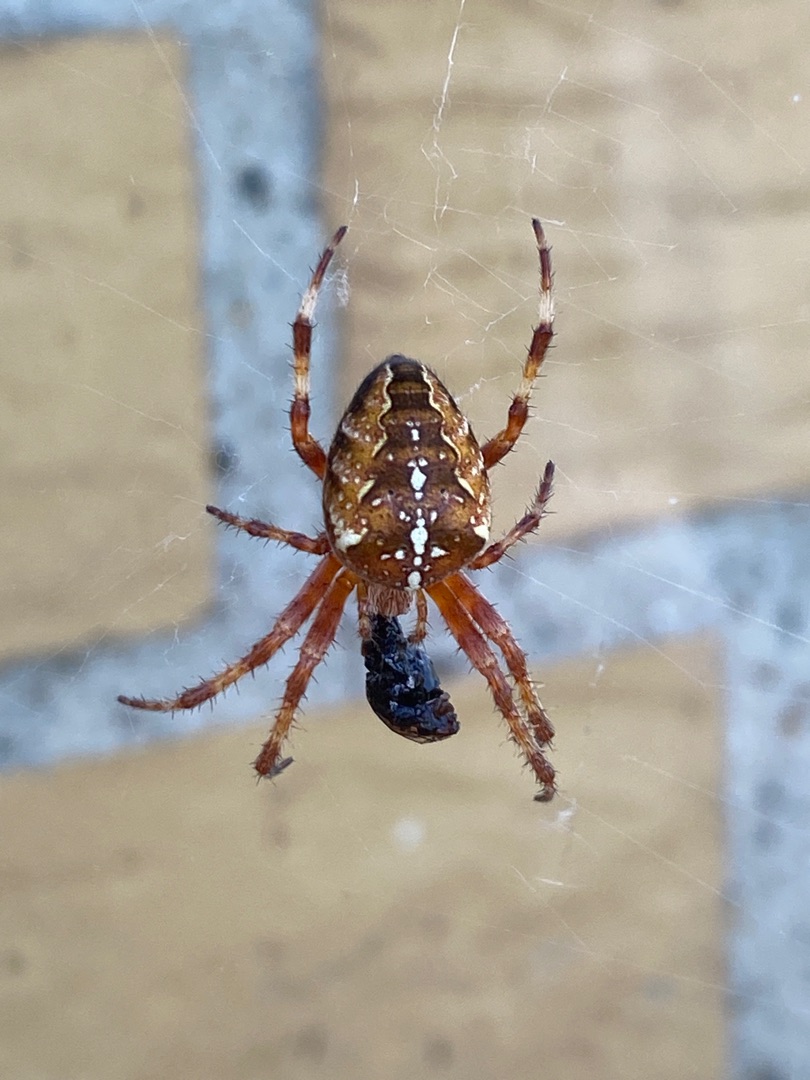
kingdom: Animalia
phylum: Arthropoda
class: Arachnida
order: Araneae
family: Araneidae
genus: Araneus
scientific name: Araneus diadematus
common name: Korsedderkop
